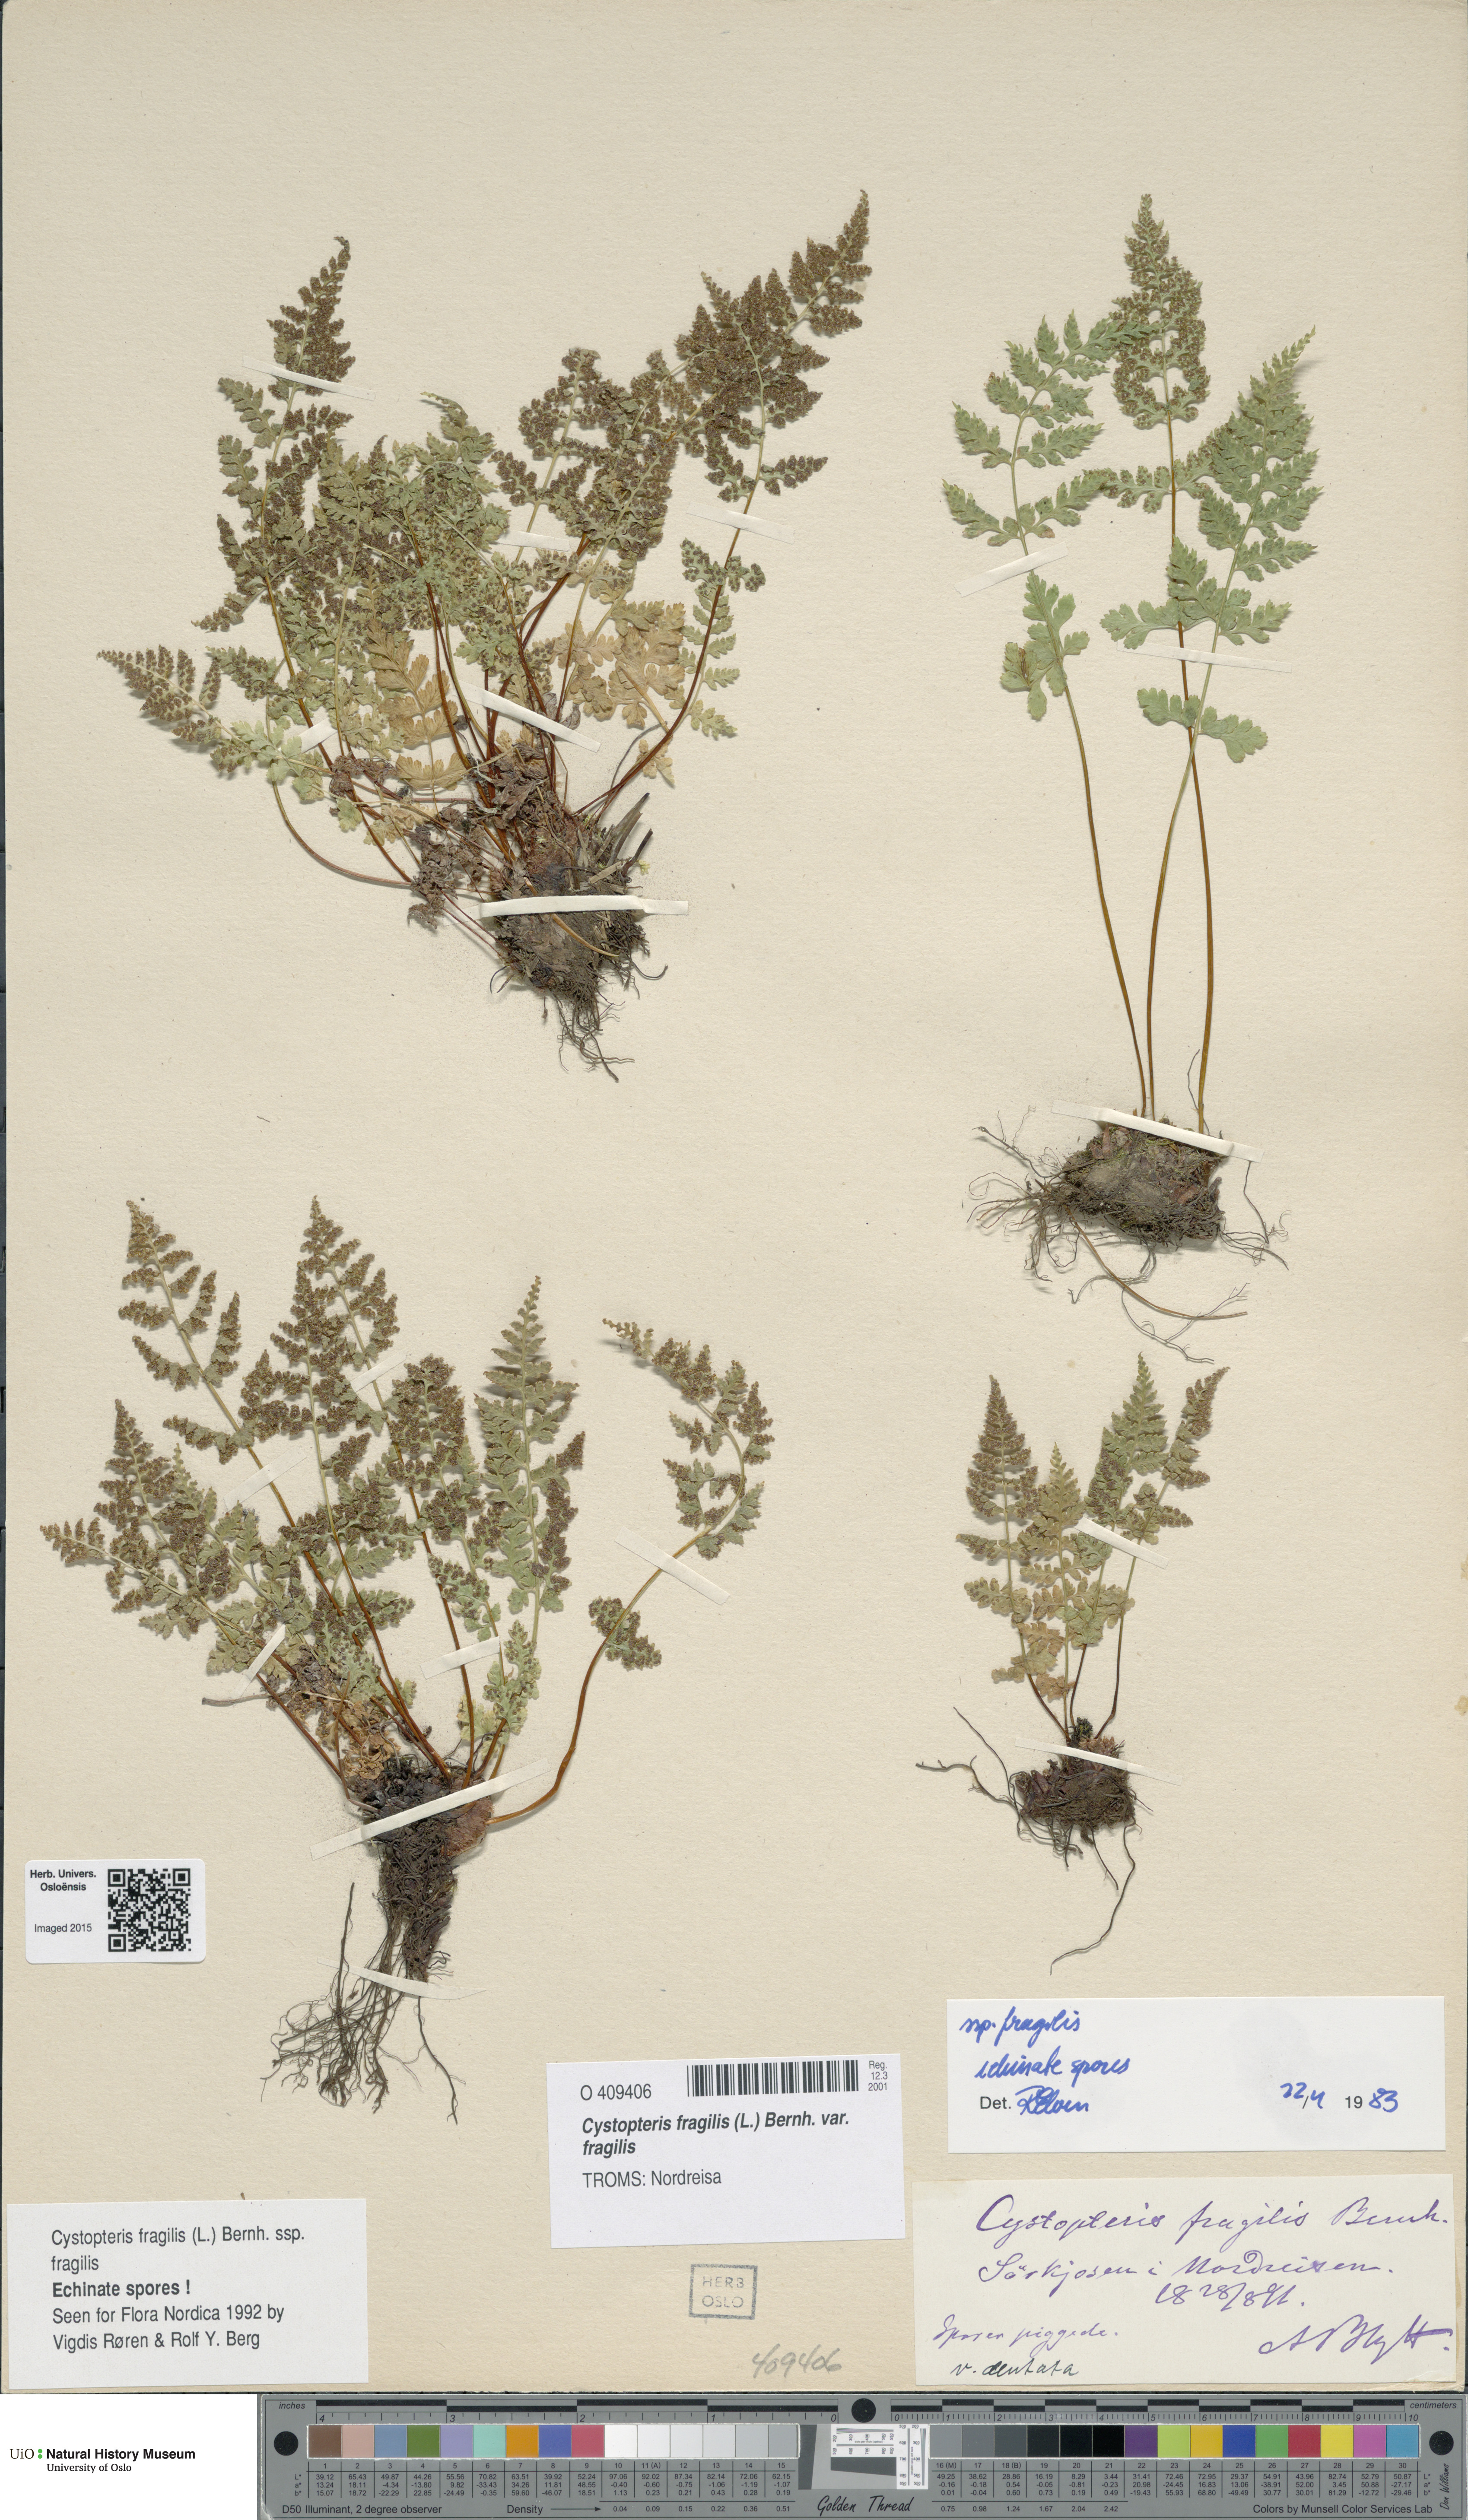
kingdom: Plantae
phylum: Tracheophyta
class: Polypodiopsida
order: Polypodiales
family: Cystopteridaceae
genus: Cystopteris
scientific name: Cystopteris fragilis
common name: Brittle bladder fern
